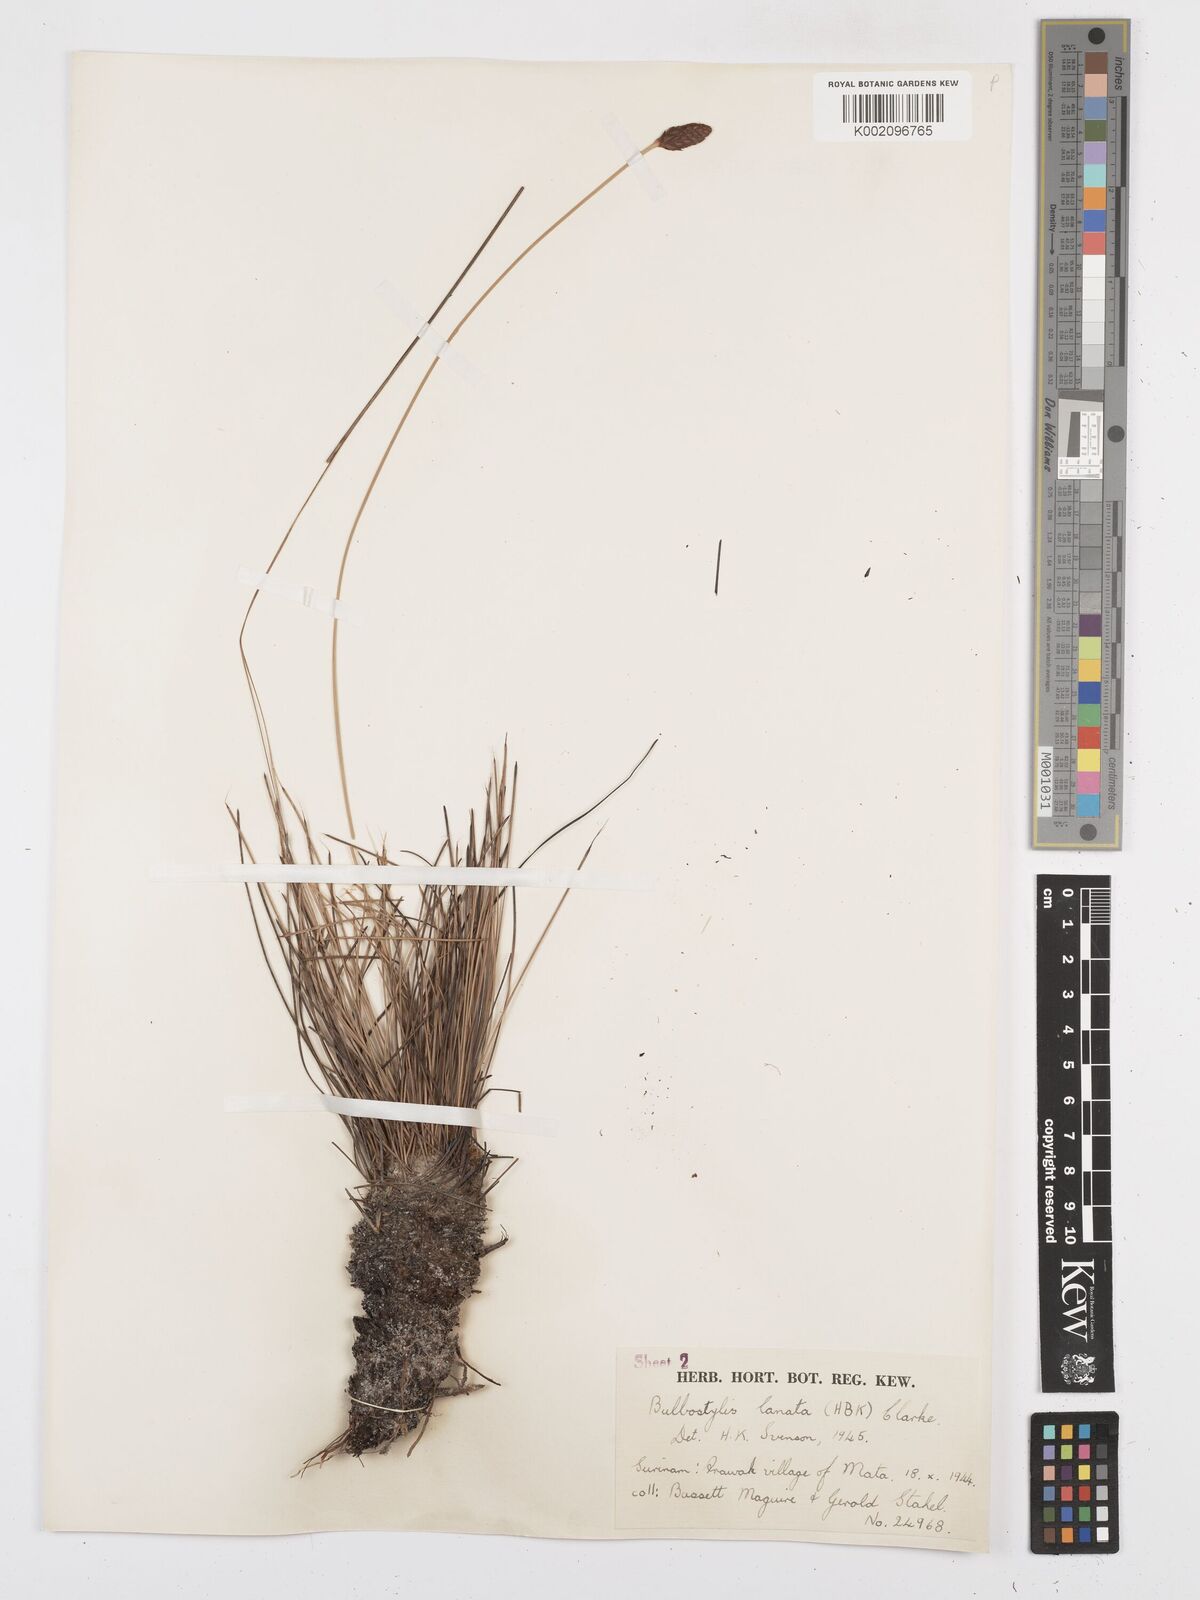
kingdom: Plantae
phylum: Tracheophyta
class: Liliopsida
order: Poales
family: Cyperaceae
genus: Bulbostylis
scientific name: Bulbostylis
